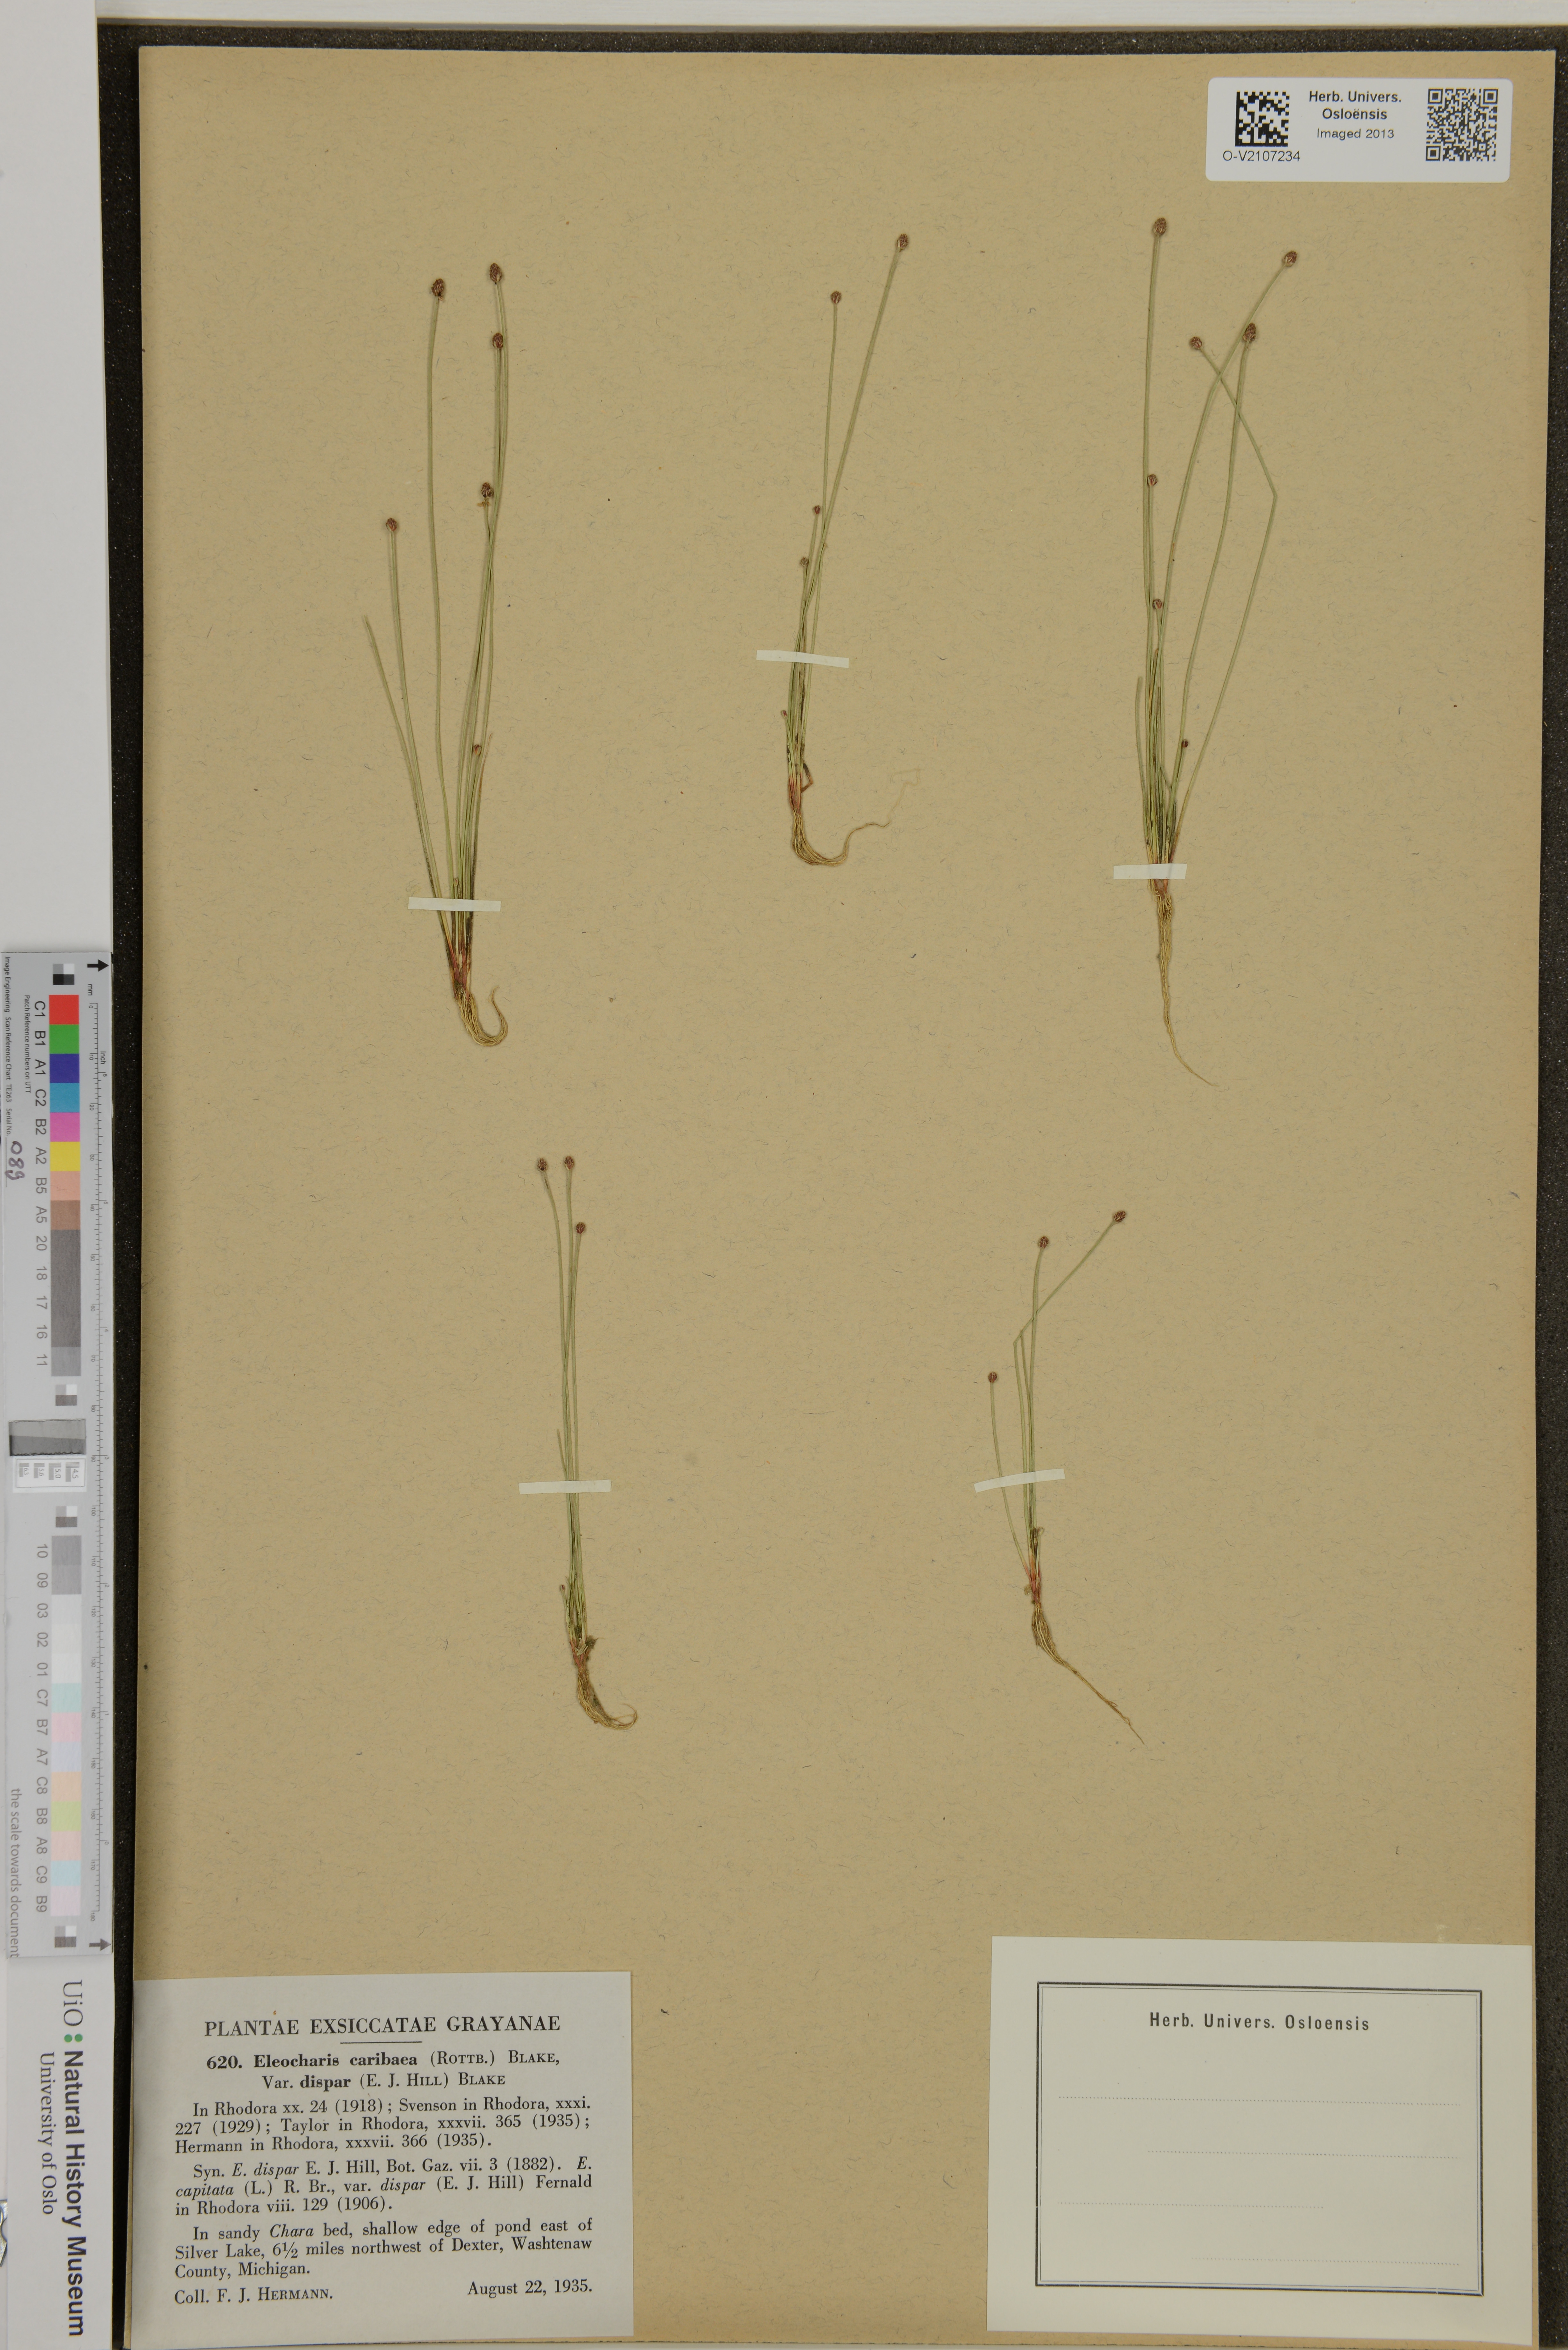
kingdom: Plantae
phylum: Tracheophyta
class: Liliopsida
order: Poales
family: Cyperaceae
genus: Eleocharis
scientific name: Eleocharis geniculata
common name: Canada spikesedge
